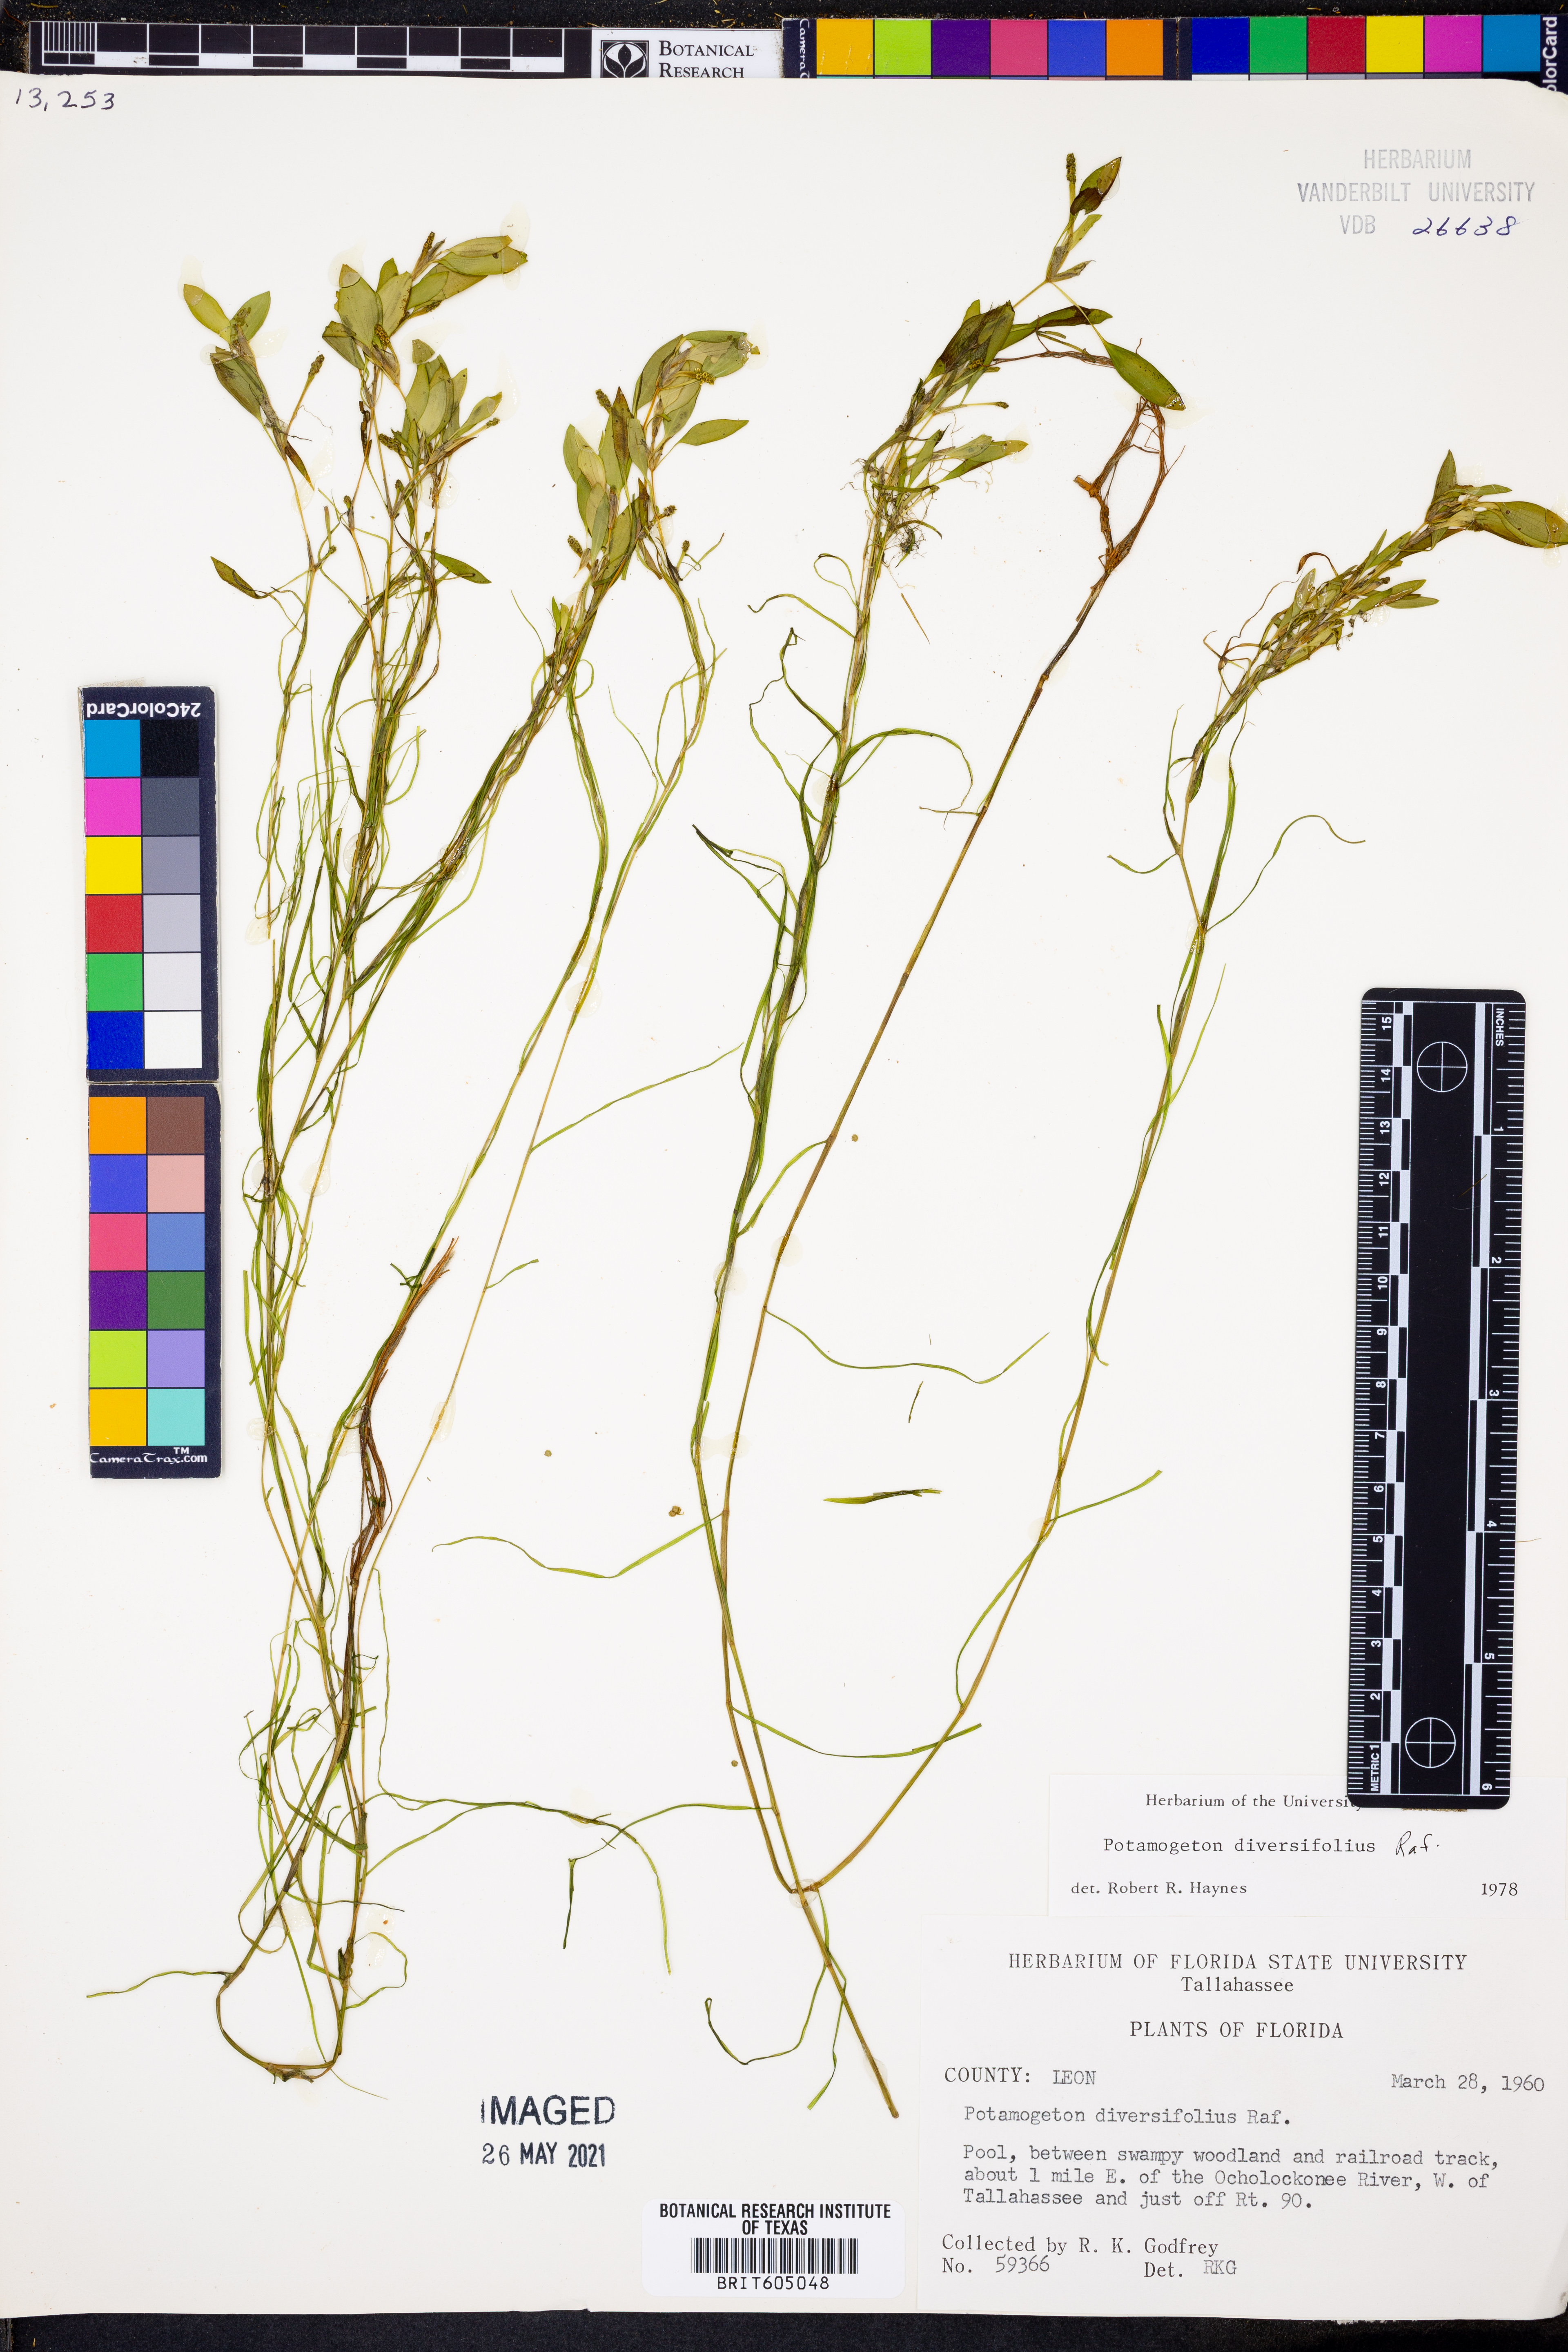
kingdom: Plantae
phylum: Tracheophyta
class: Liliopsida
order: Alismatales
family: Potamogetonaceae
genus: Potamogeton
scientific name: Potamogeton diversifolius
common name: Water-thread pondweed
